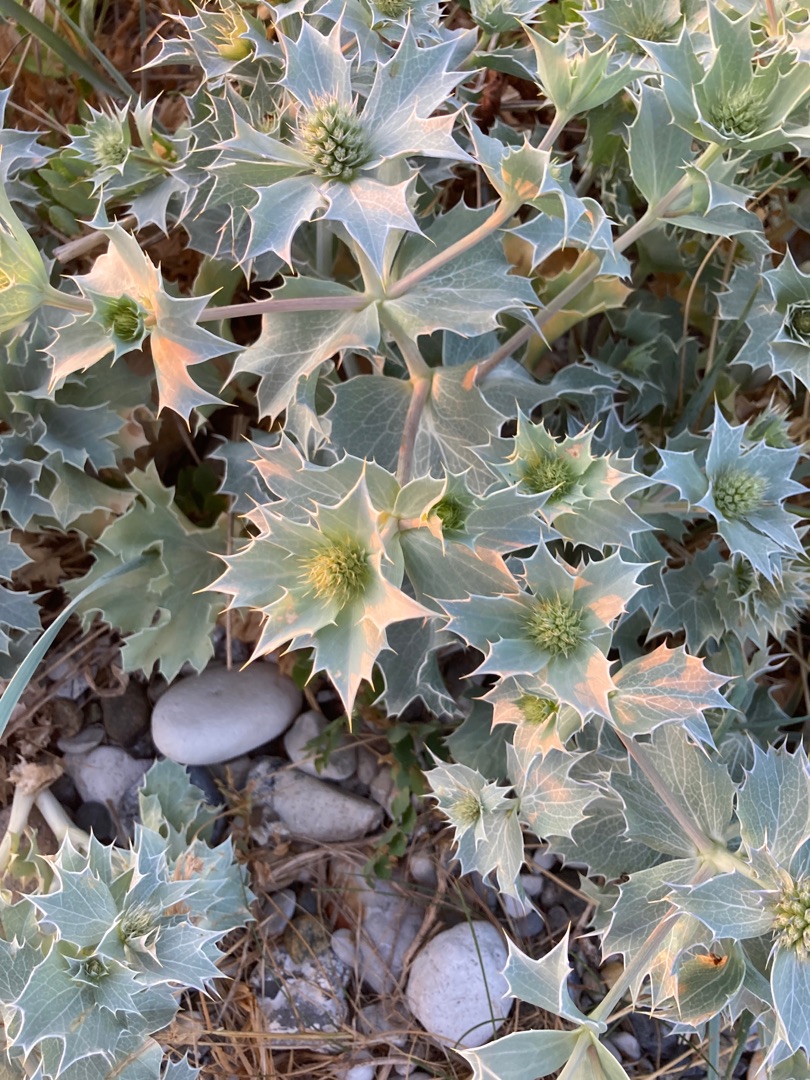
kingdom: Plantae
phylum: Tracheophyta
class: Magnoliopsida
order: Apiales
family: Apiaceae
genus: Eryngium
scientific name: Eryngium maritimum
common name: Strand-mandstro
